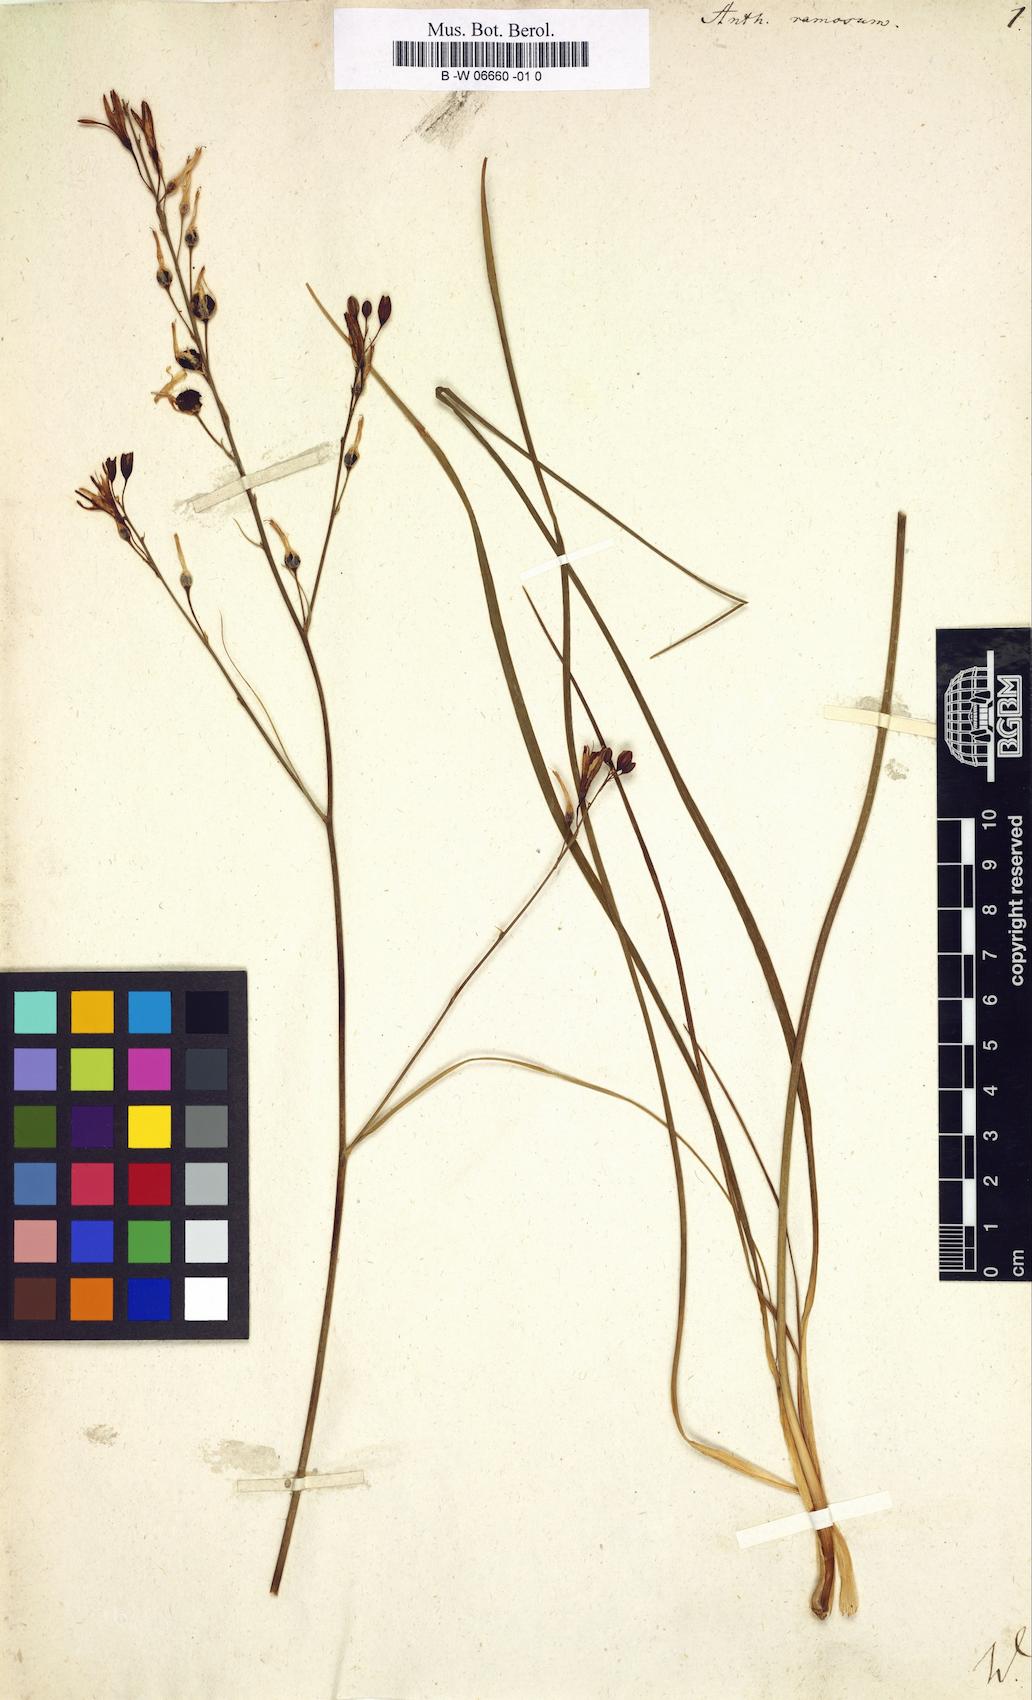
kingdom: Plantae
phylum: Tracheophyta
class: Liliopsida
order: Asparagales
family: Asparagaceae
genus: Anthericum
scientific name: Anthericum ramosum
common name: Branched st. bernard's-lily
